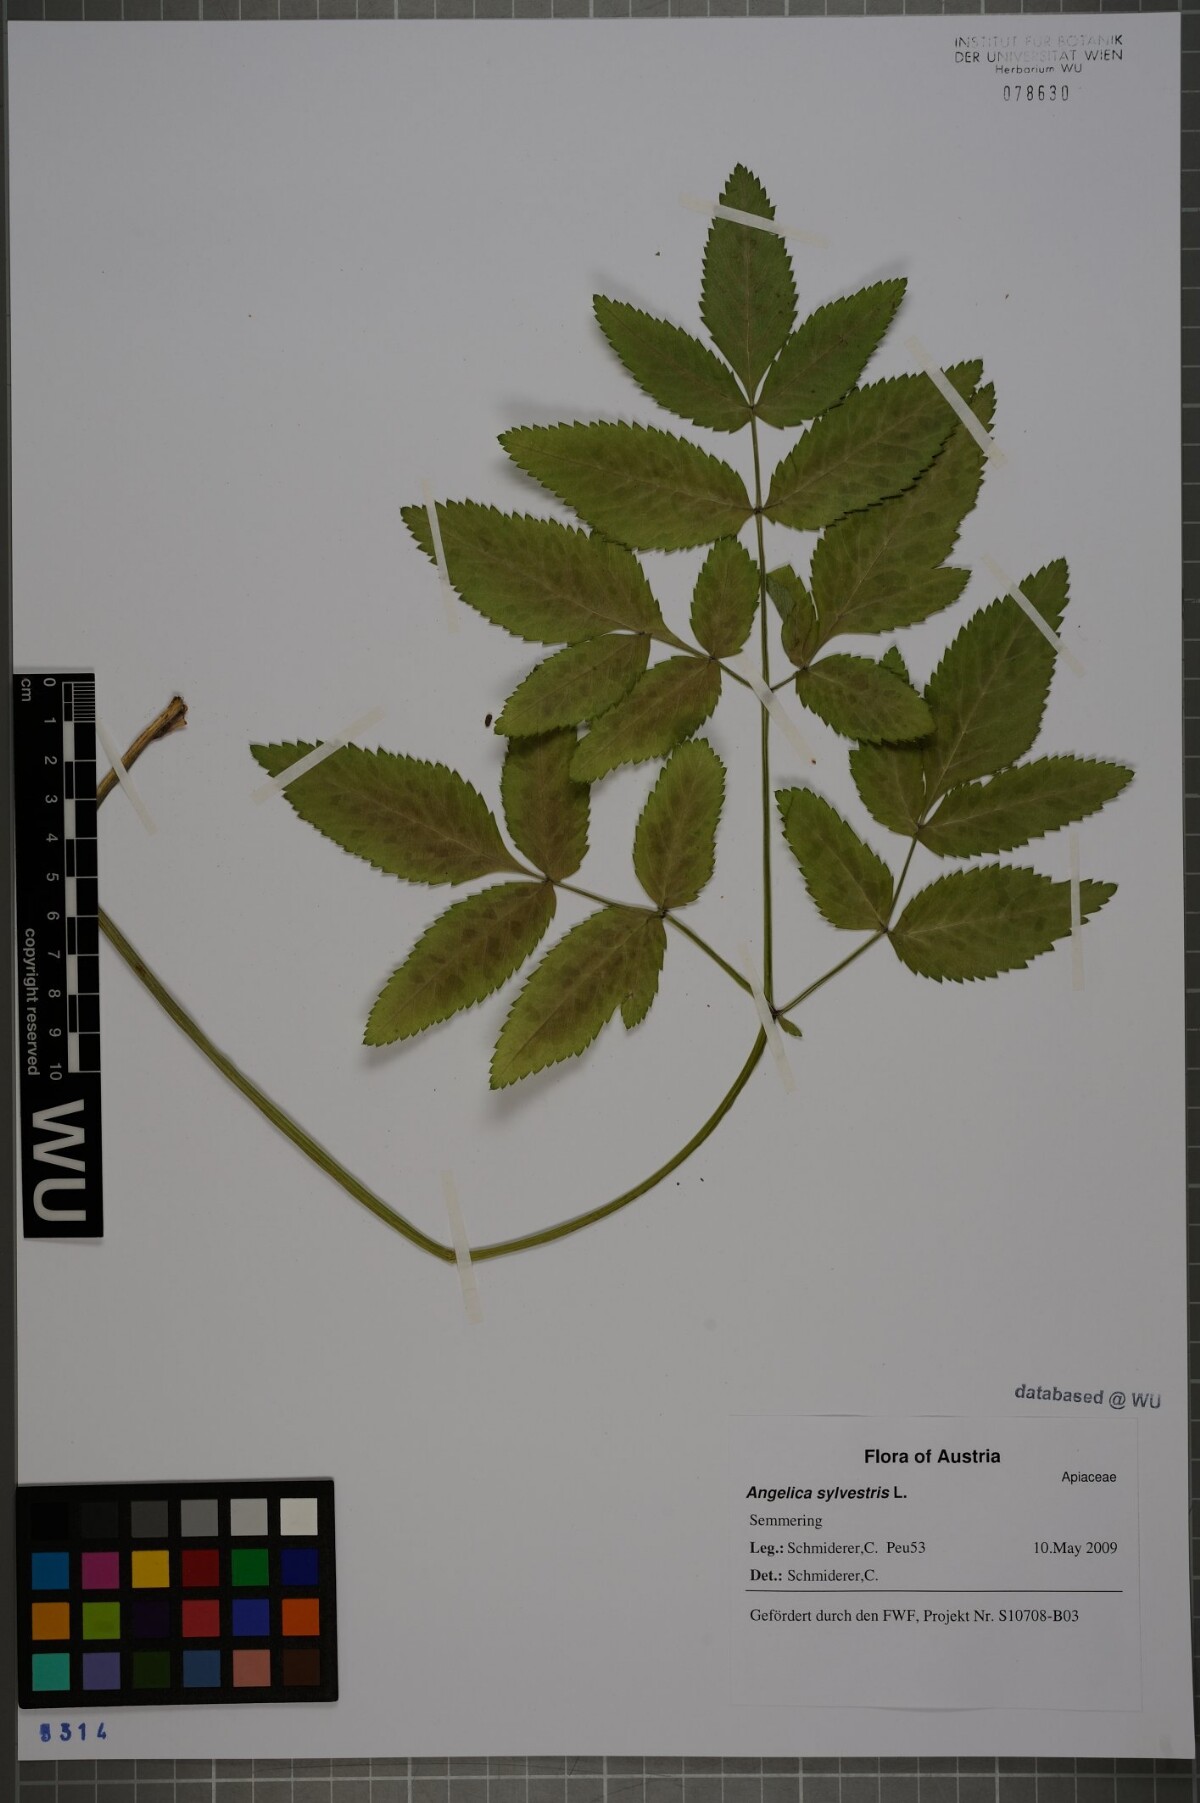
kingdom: Plantae
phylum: Tracheophyta
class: Magnoliopsida
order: Apiales
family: Apiaceae
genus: Angelica
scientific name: Angelica sylvestris
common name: Wild angelica
